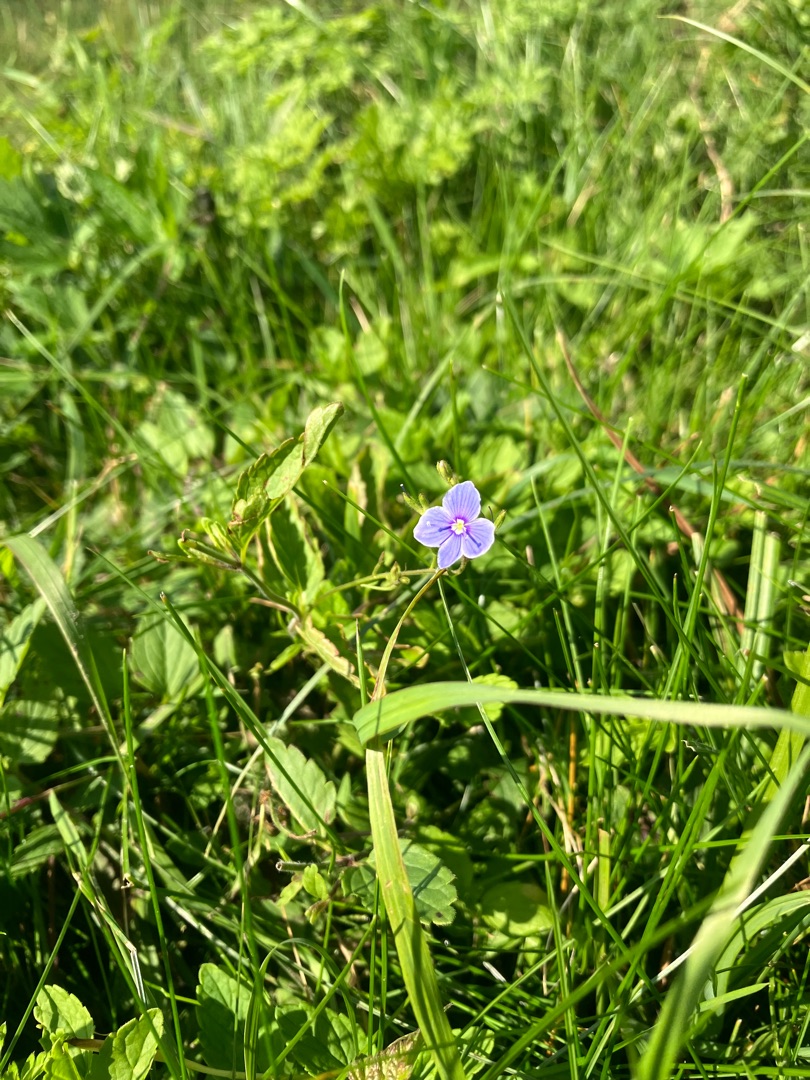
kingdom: Plantae
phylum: Tracheophyta
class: Magnoliopsida
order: Lamiales
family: Plantaginaceae
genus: Veronica
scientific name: Veronica chamaedrys
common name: Tveskægget ærenpris
